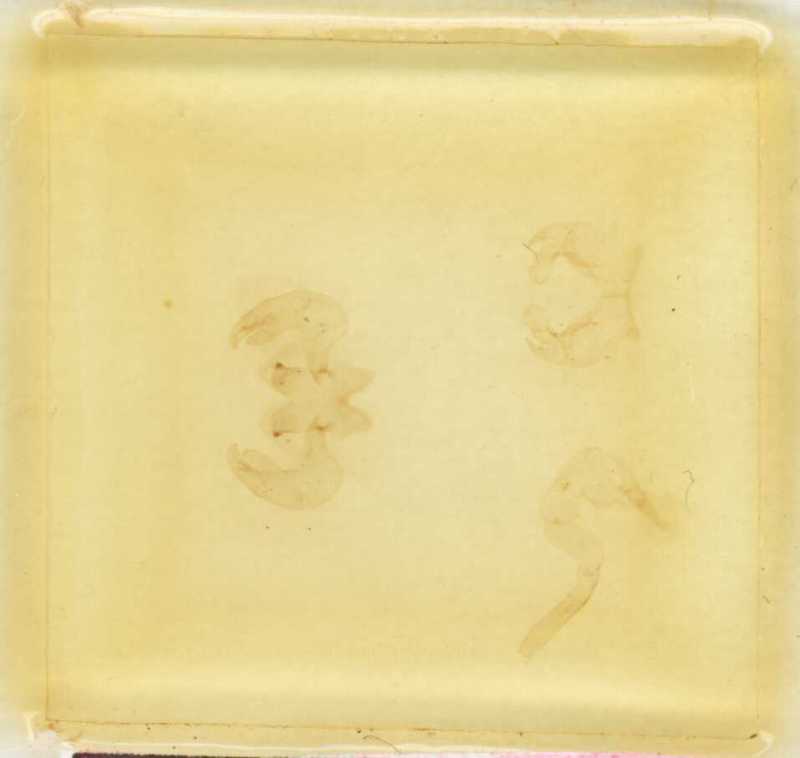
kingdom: Animalia
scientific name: Animalia
